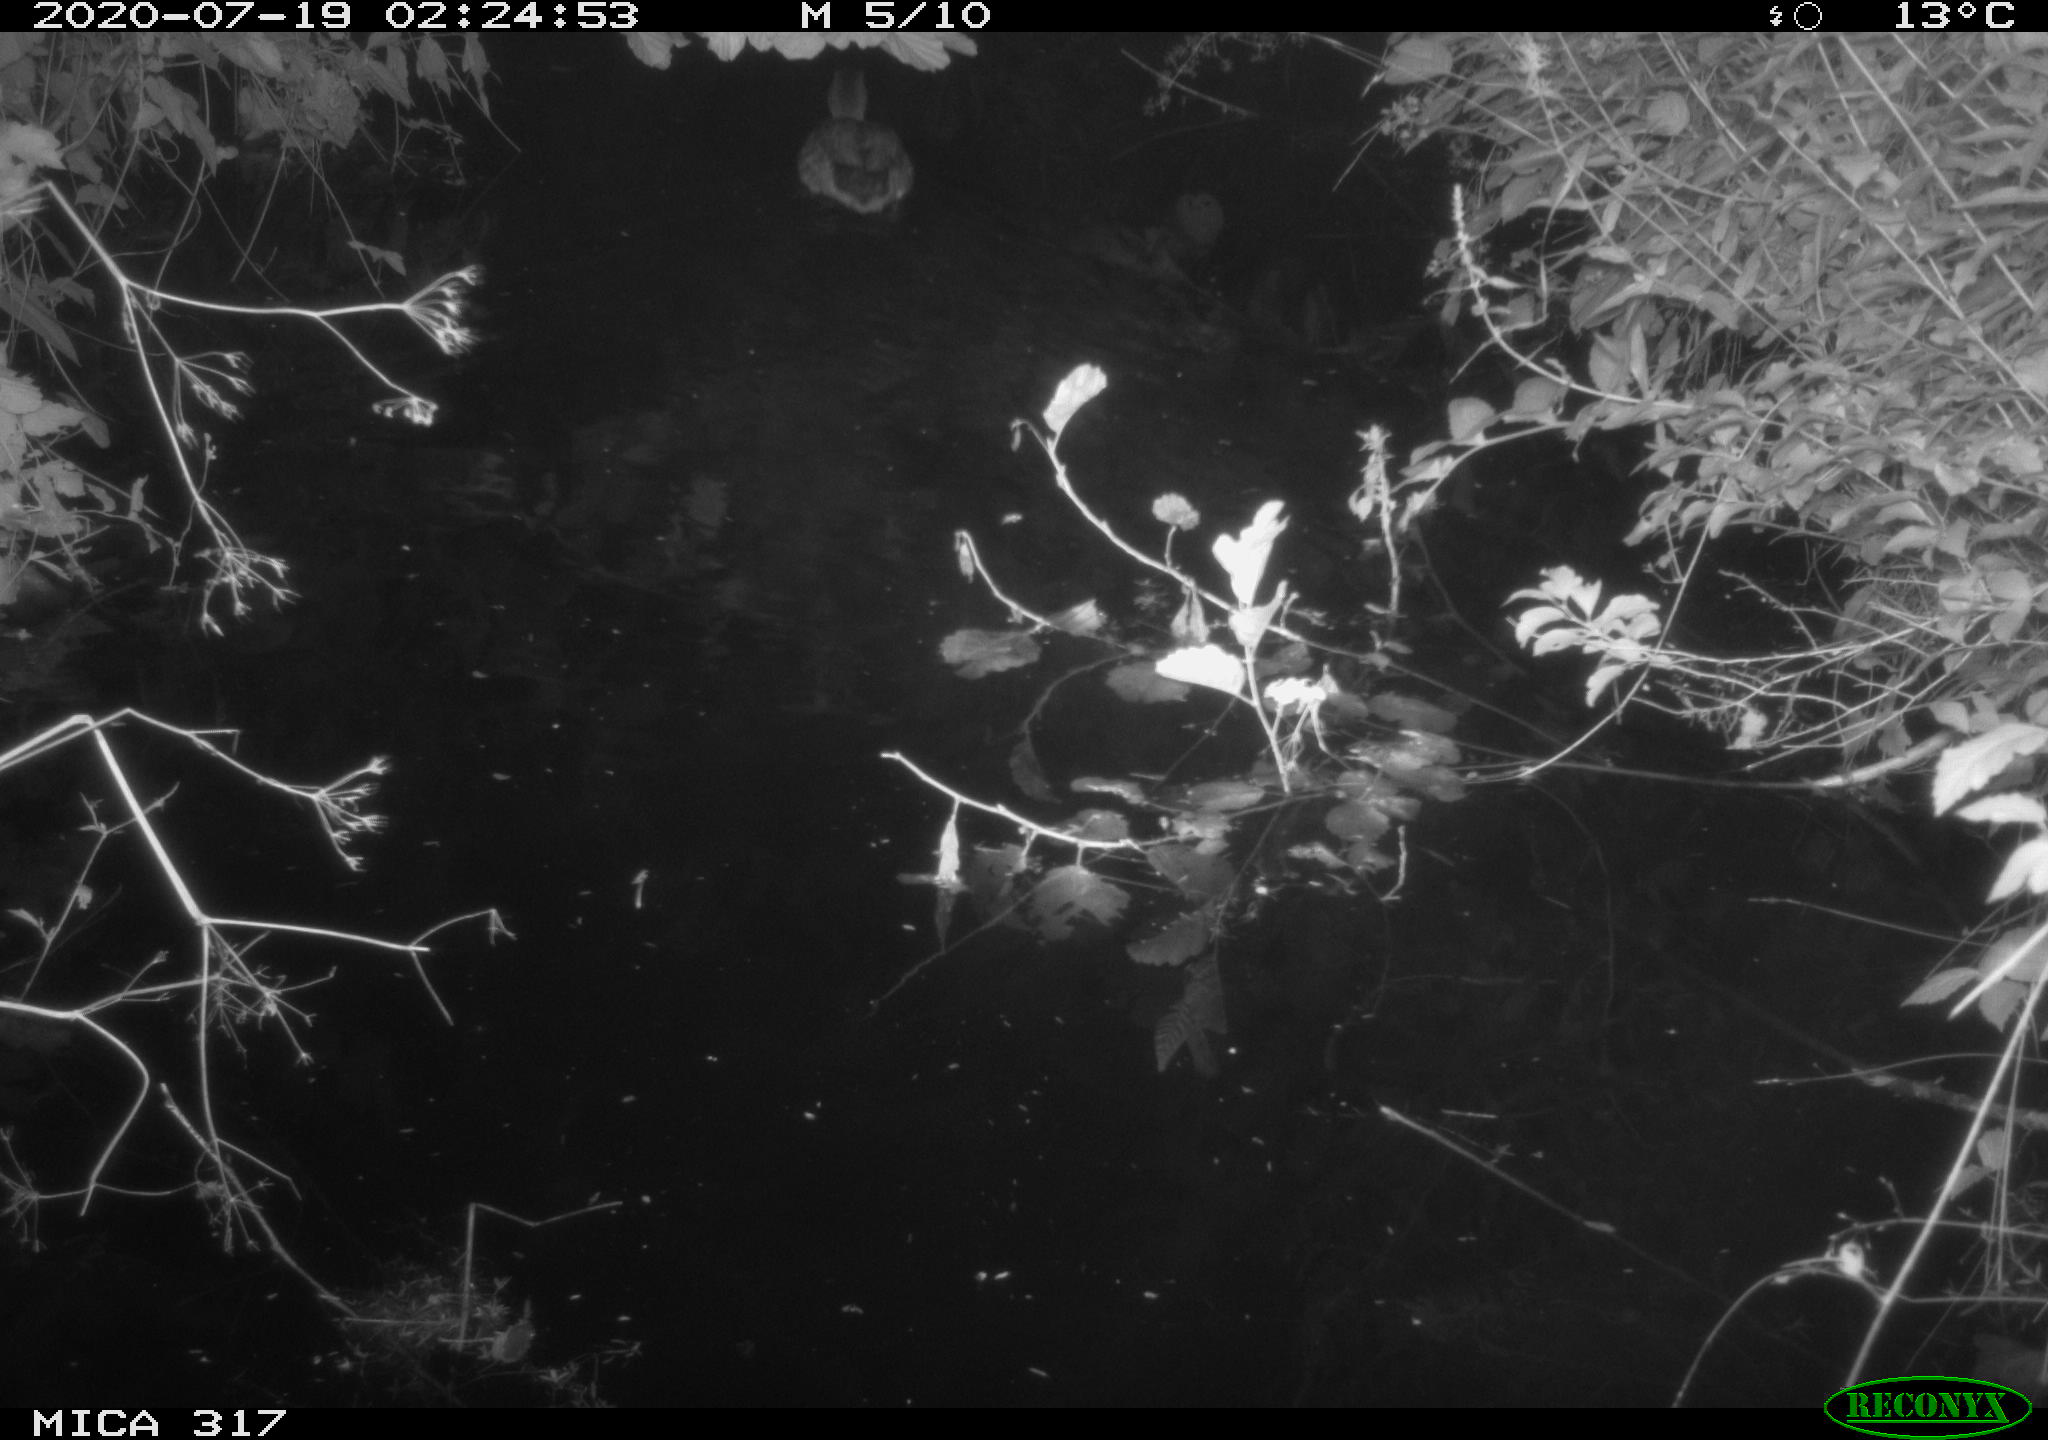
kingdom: Animalia
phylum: Chordata
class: Aves
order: Anseriformes
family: Anatidae
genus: Anas
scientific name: Anas platyrhynchos
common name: Mallard
